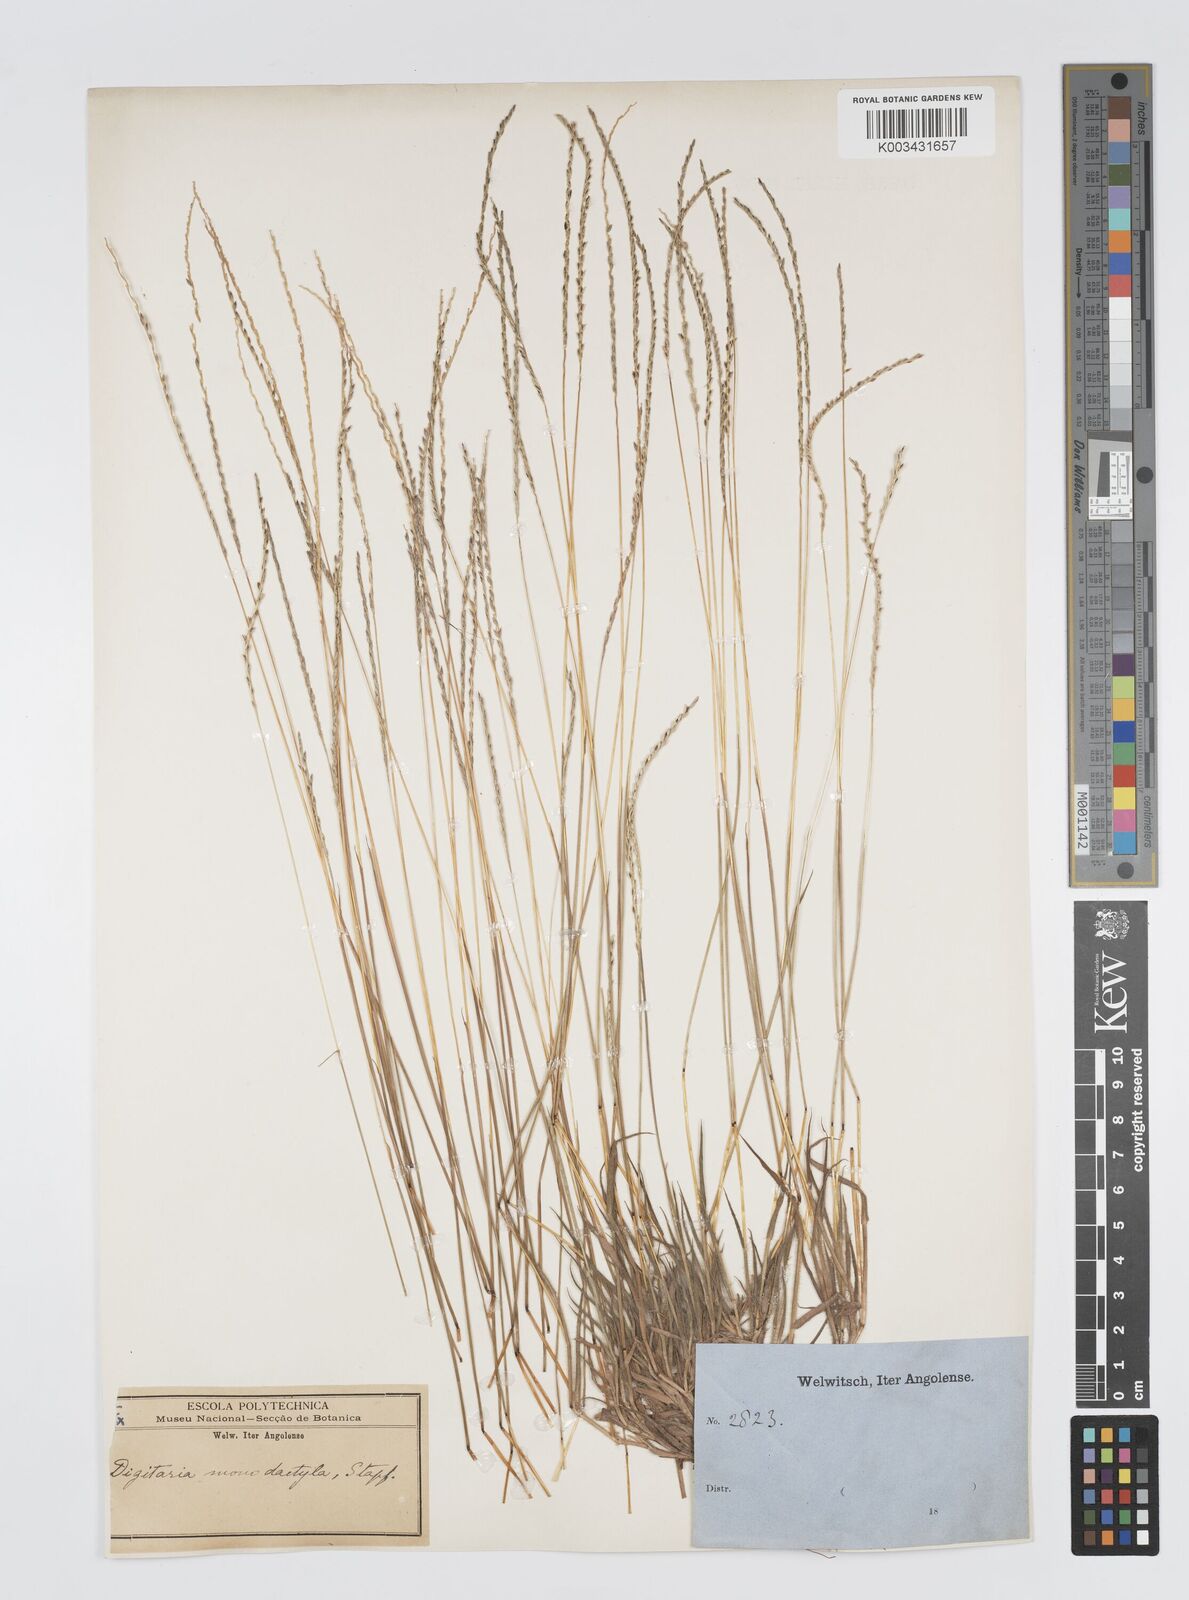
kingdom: Plantae
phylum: Tracheophyta
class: Liliopsida
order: Poales
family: Poaceae
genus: Digitaria
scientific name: Digitaria monodactyla
